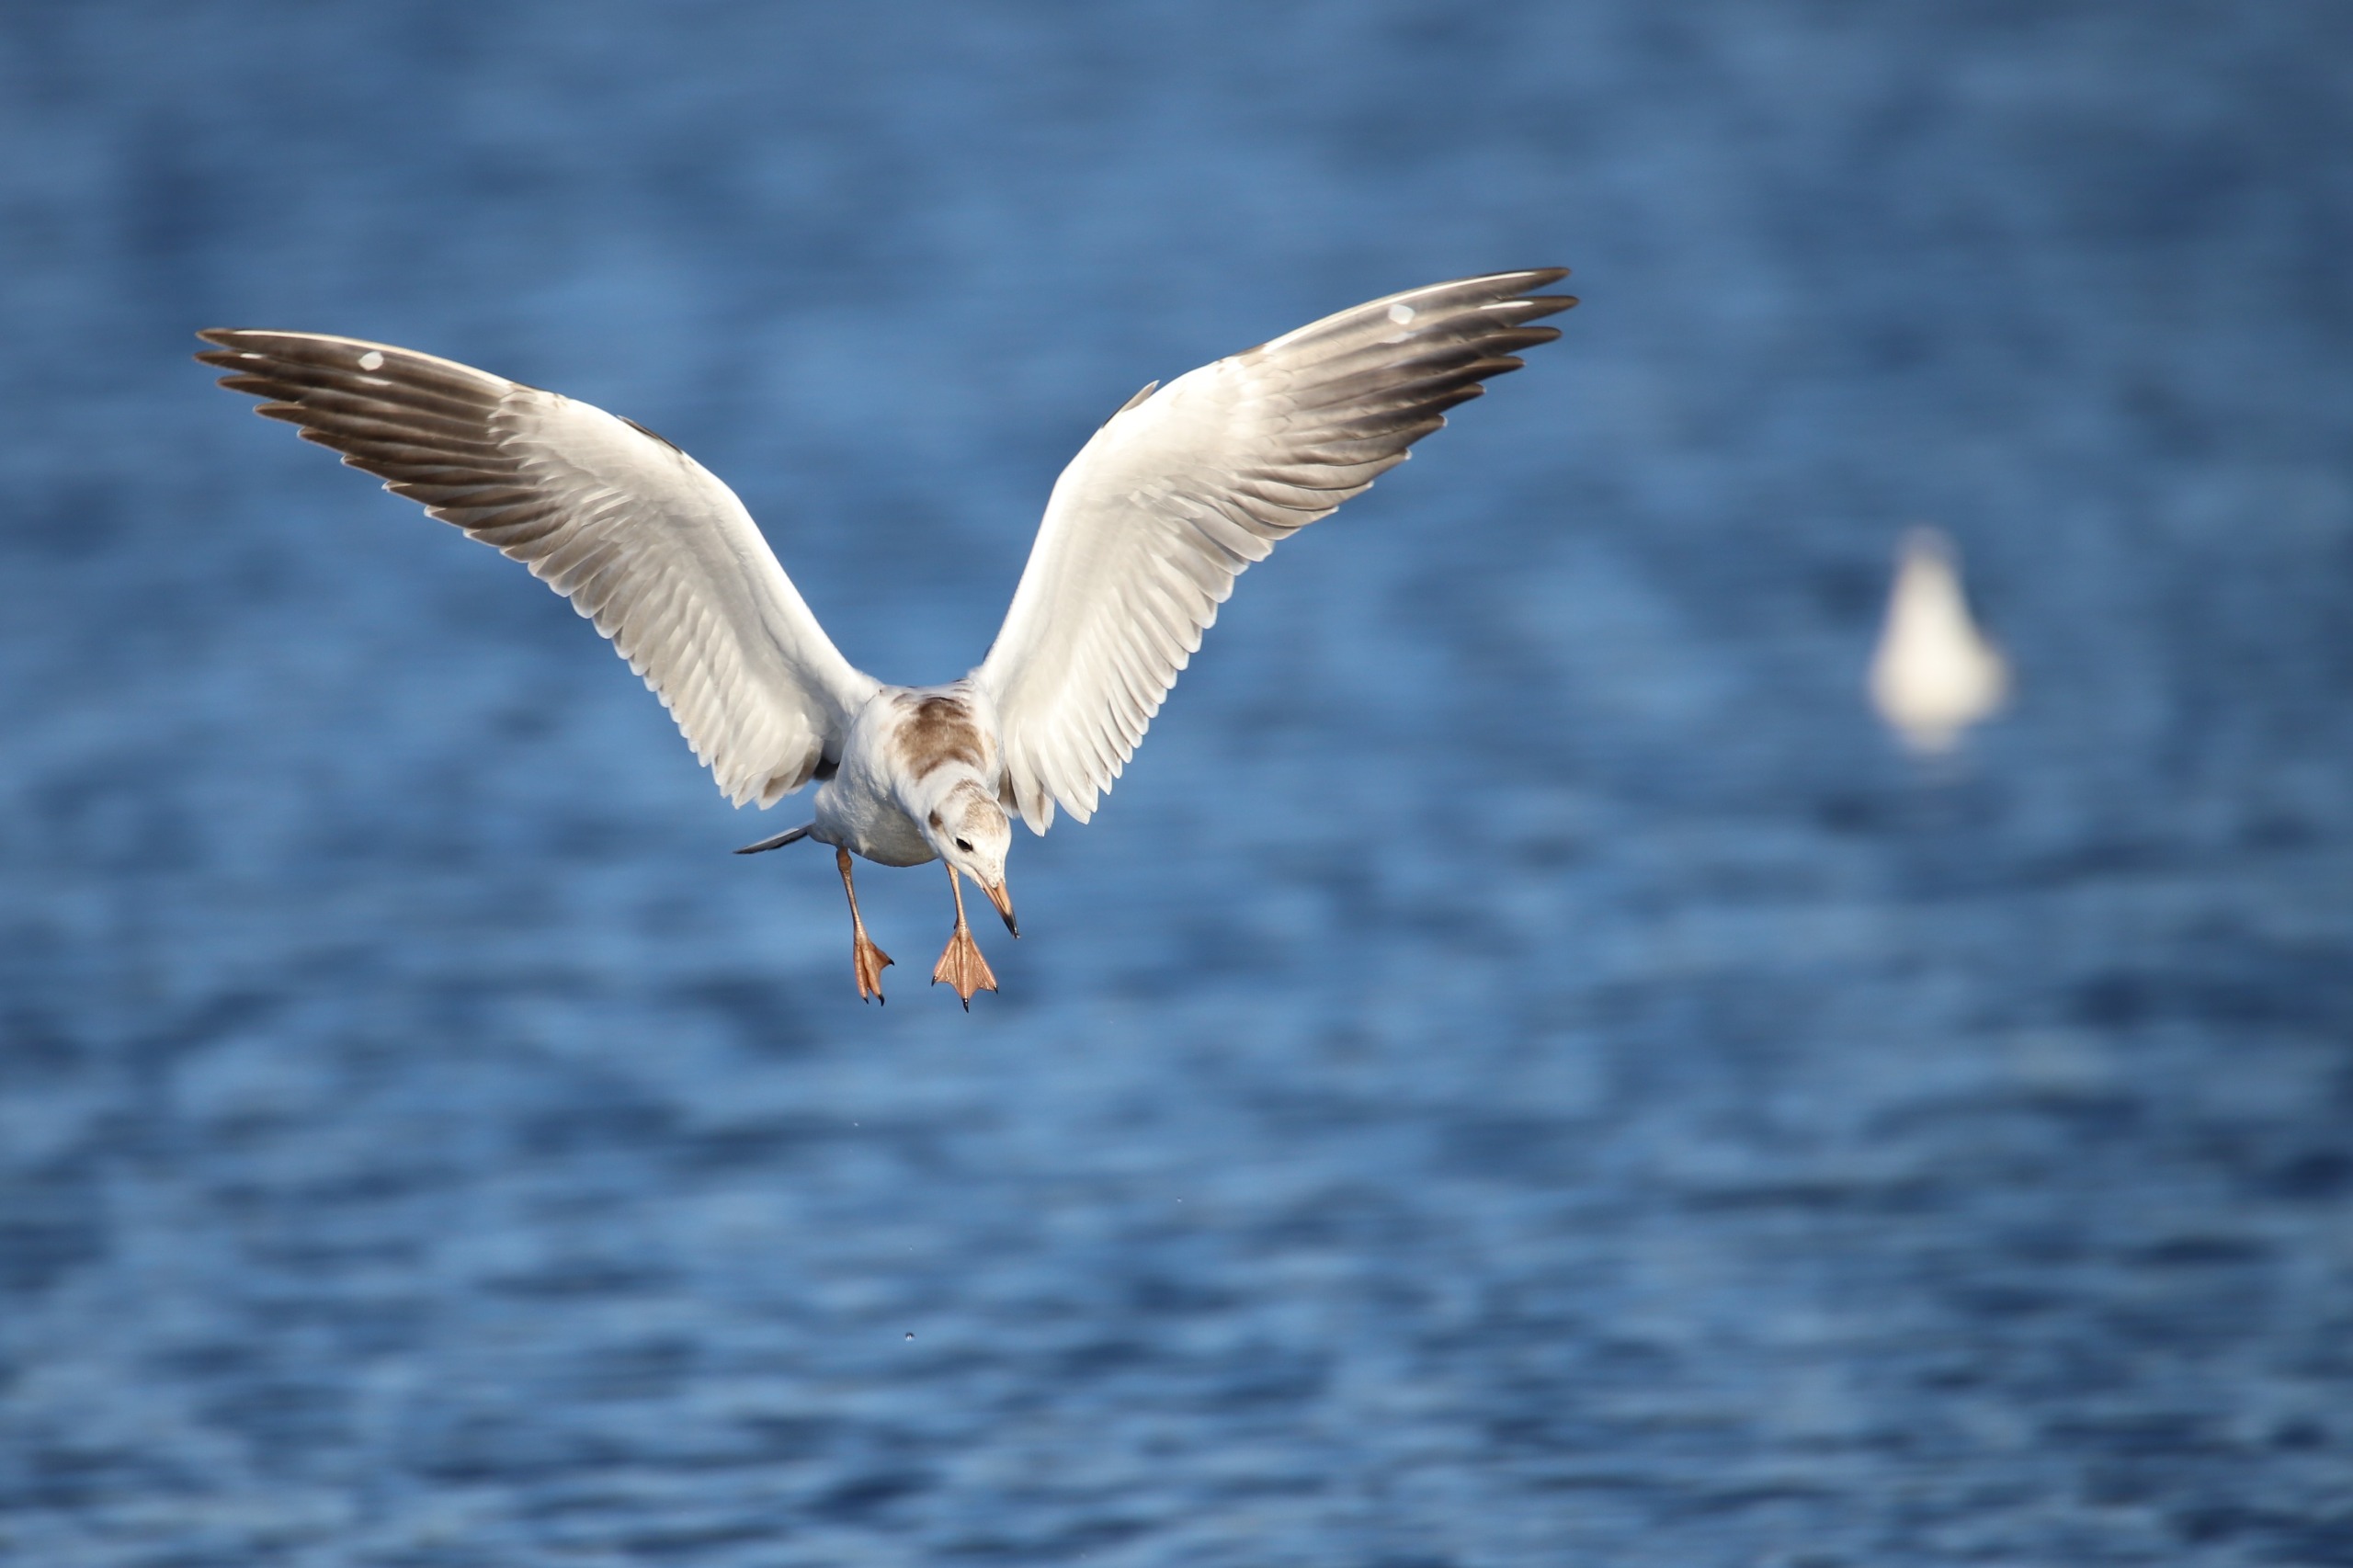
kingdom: Animalia
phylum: Chordata
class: Aves
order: Charadriiformes
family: Laridae
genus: Chroicocephalus
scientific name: Chroicocephalus ridibundus
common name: Hættemåge
